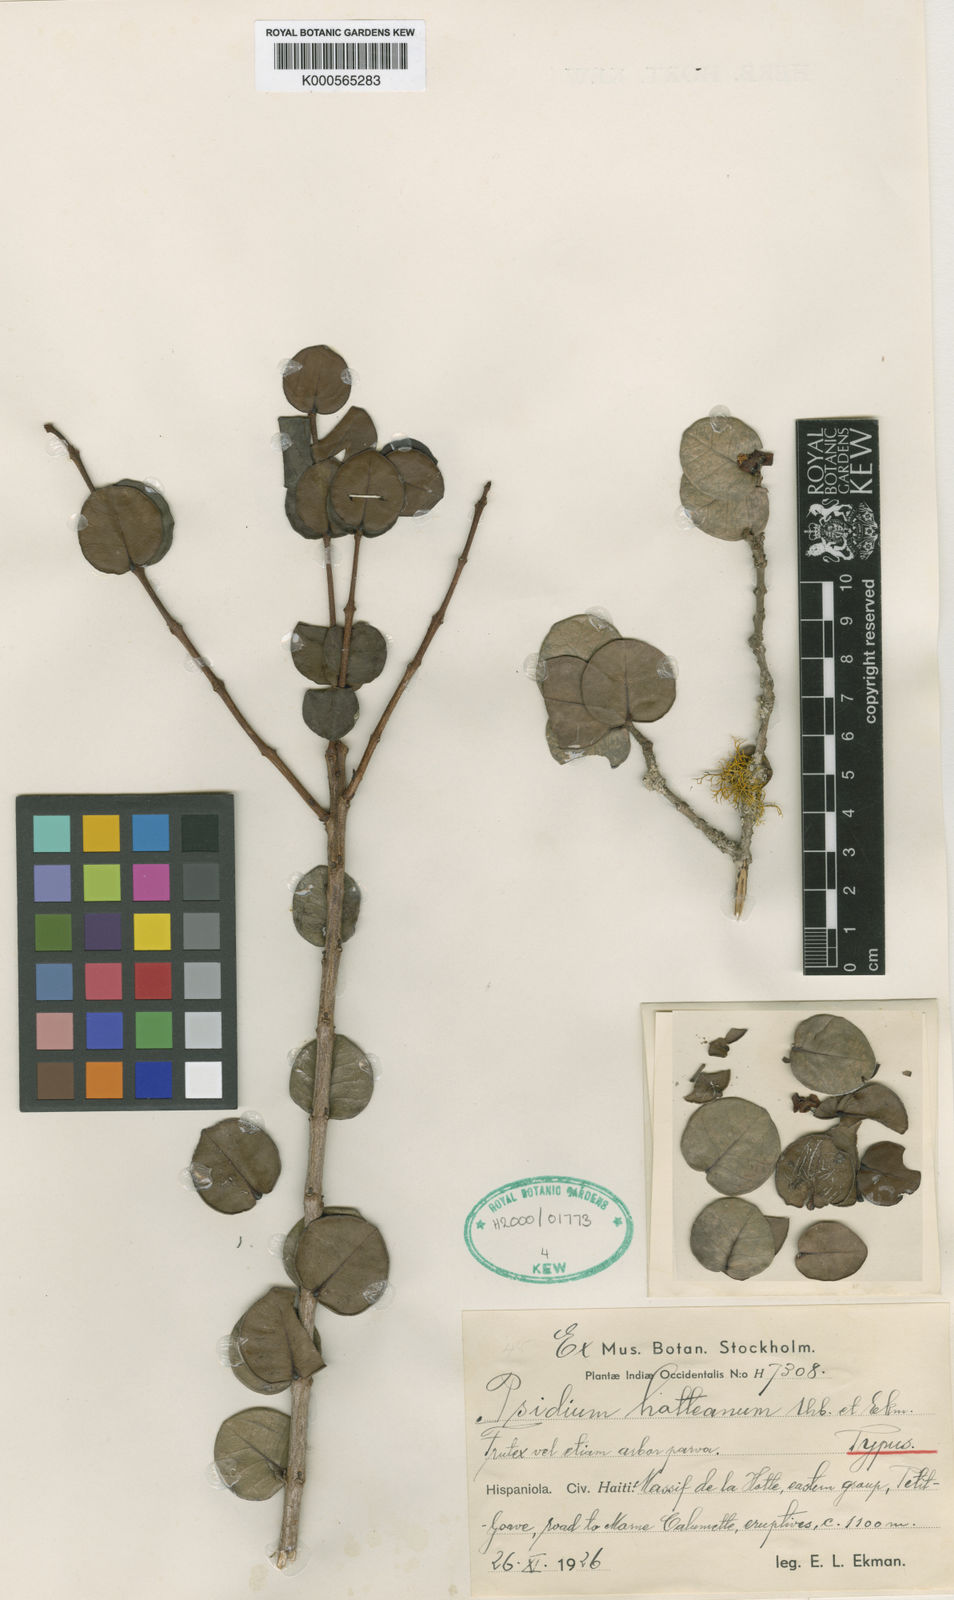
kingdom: Plantae
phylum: Tracheophyta
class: Magnoliopsida
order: Myrtales
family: Myrtaceae
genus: Psidium
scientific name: Psidium hotteanum
